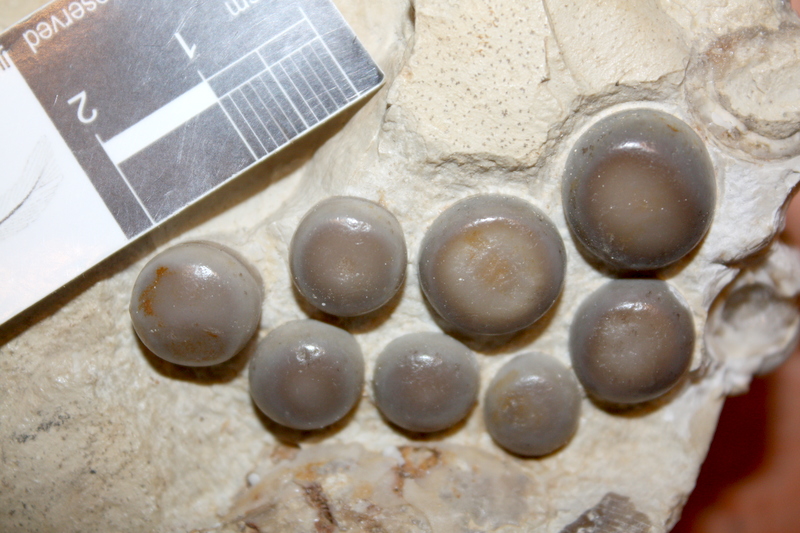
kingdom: Animalia
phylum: Chordata
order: Lepisosteiformes
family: Lepidotidae
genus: Scheenstia
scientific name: Scheenstia maximus
